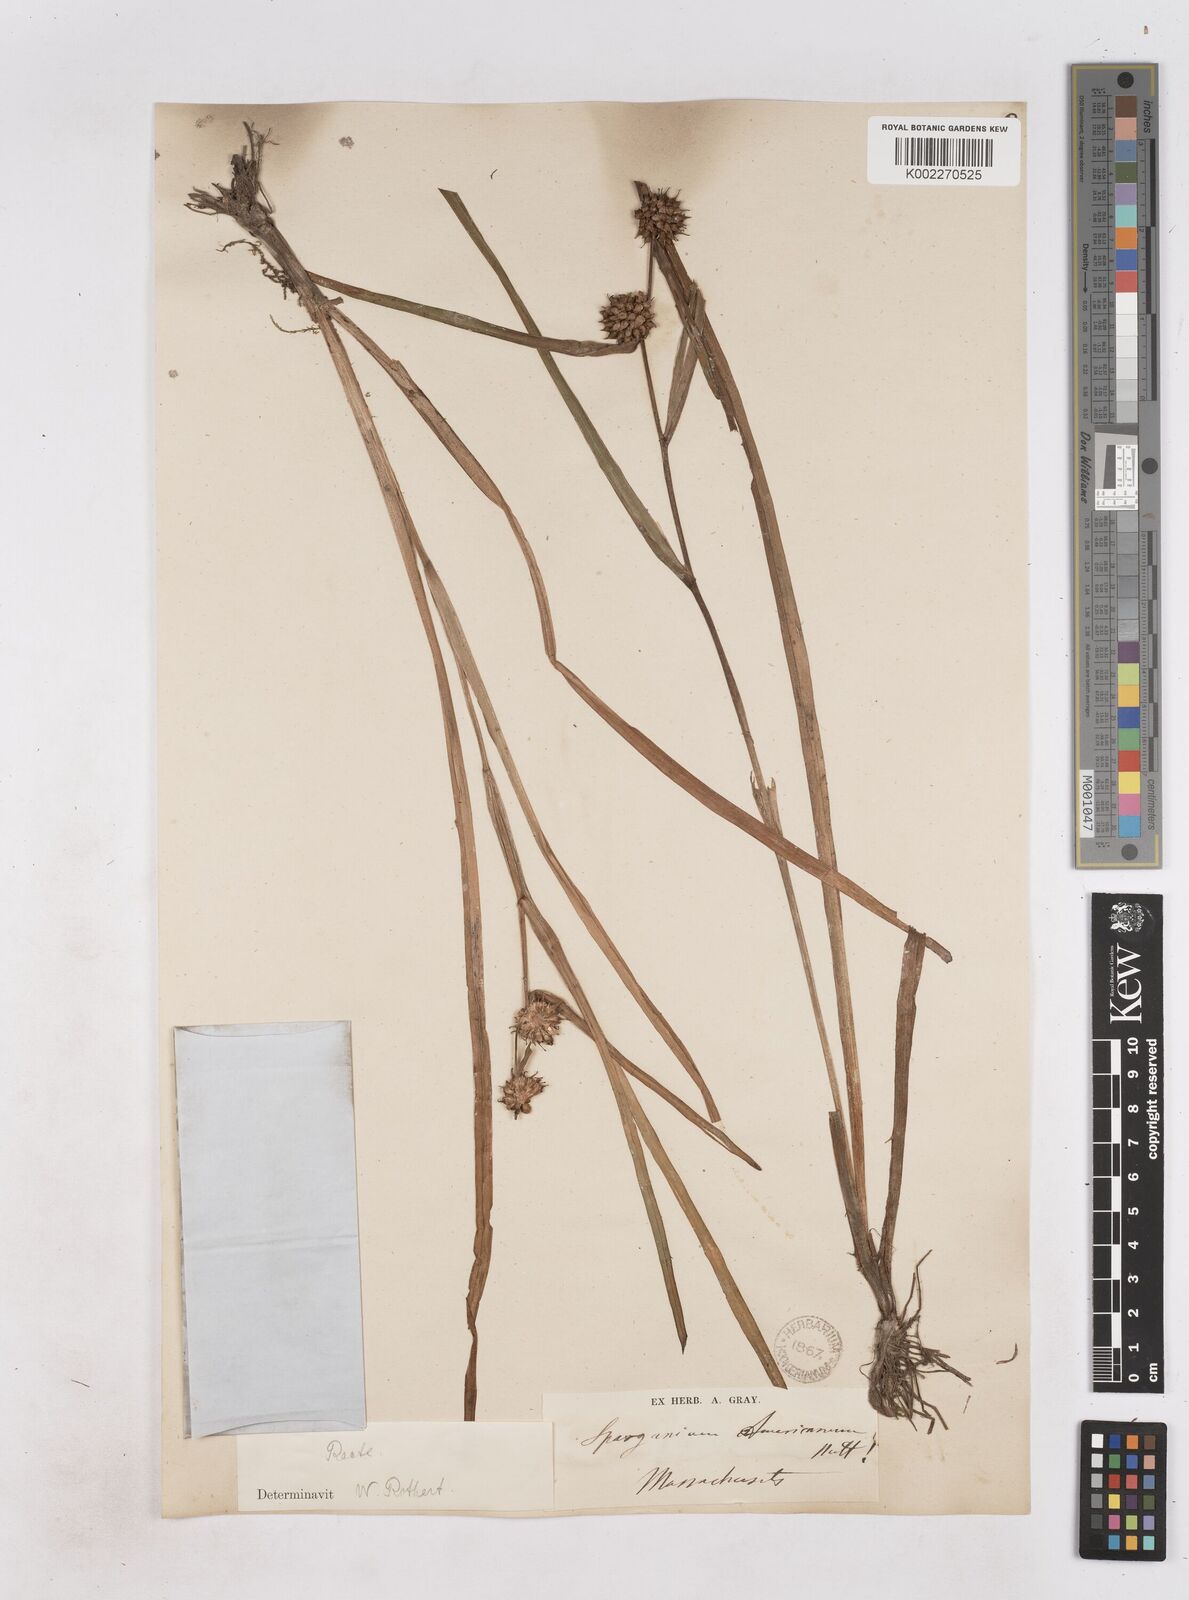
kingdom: Plantae
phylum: Tracheophyta
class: Liliopsida
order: Poales
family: Typhaceae
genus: Sparganium
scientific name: Sparganium americanum
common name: American burreed
